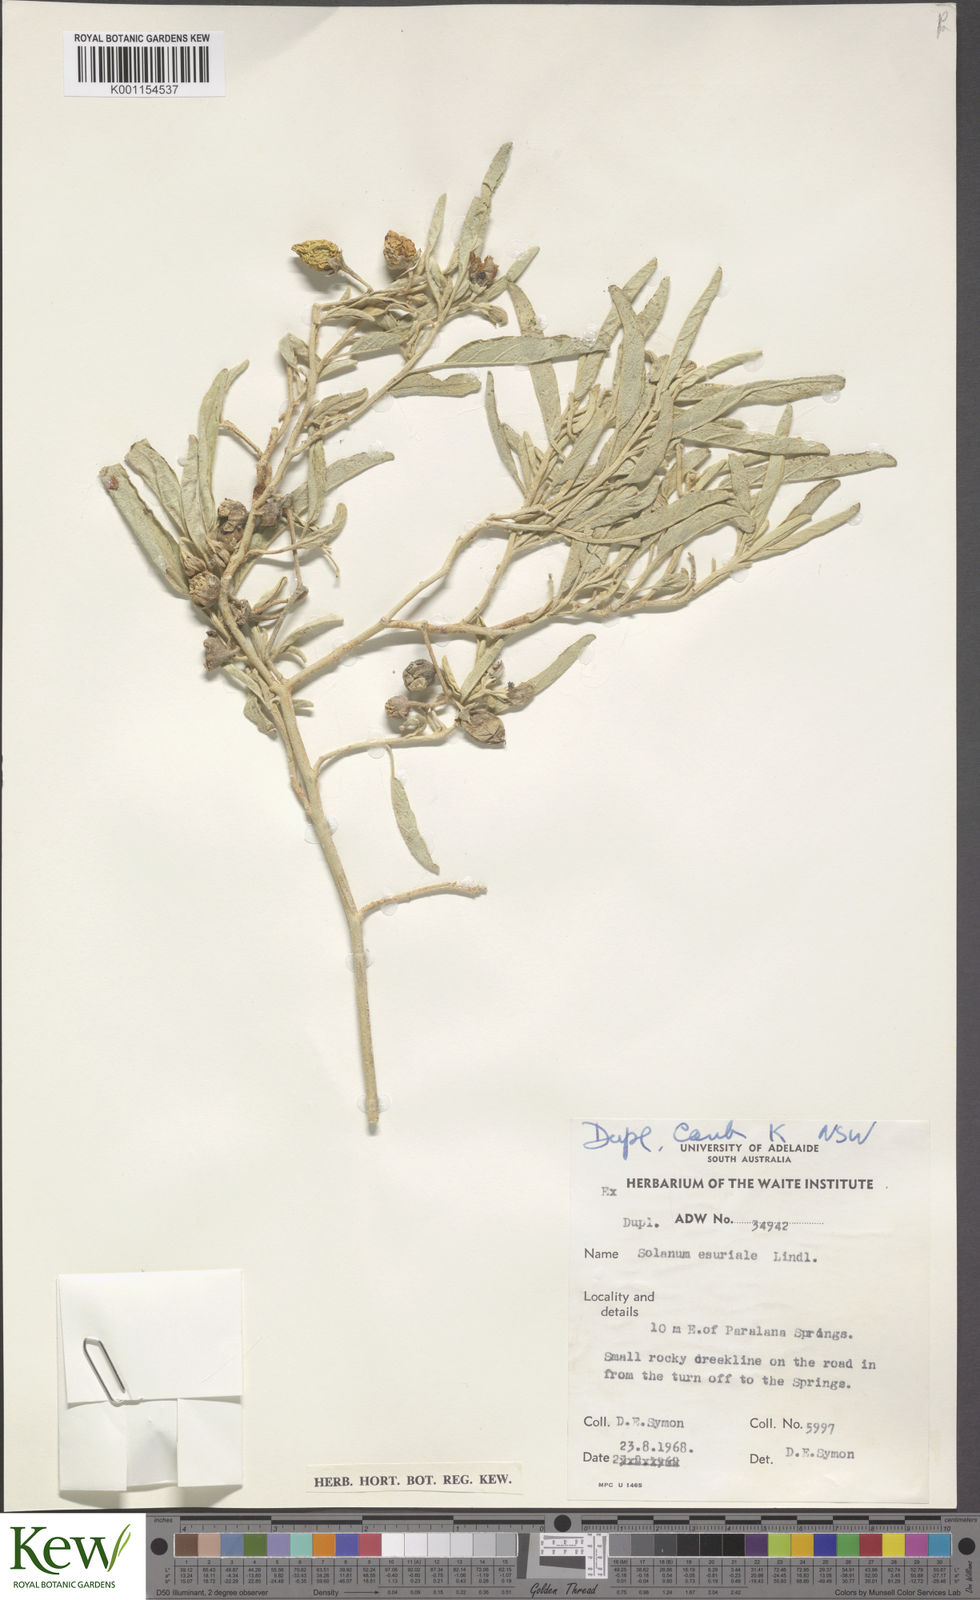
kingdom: Plantae
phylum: Tracheophyta
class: Magnoliopsida
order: Solanales
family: Solanaceae
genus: Solanum
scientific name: Solanum esuriale
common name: Wild tomato
